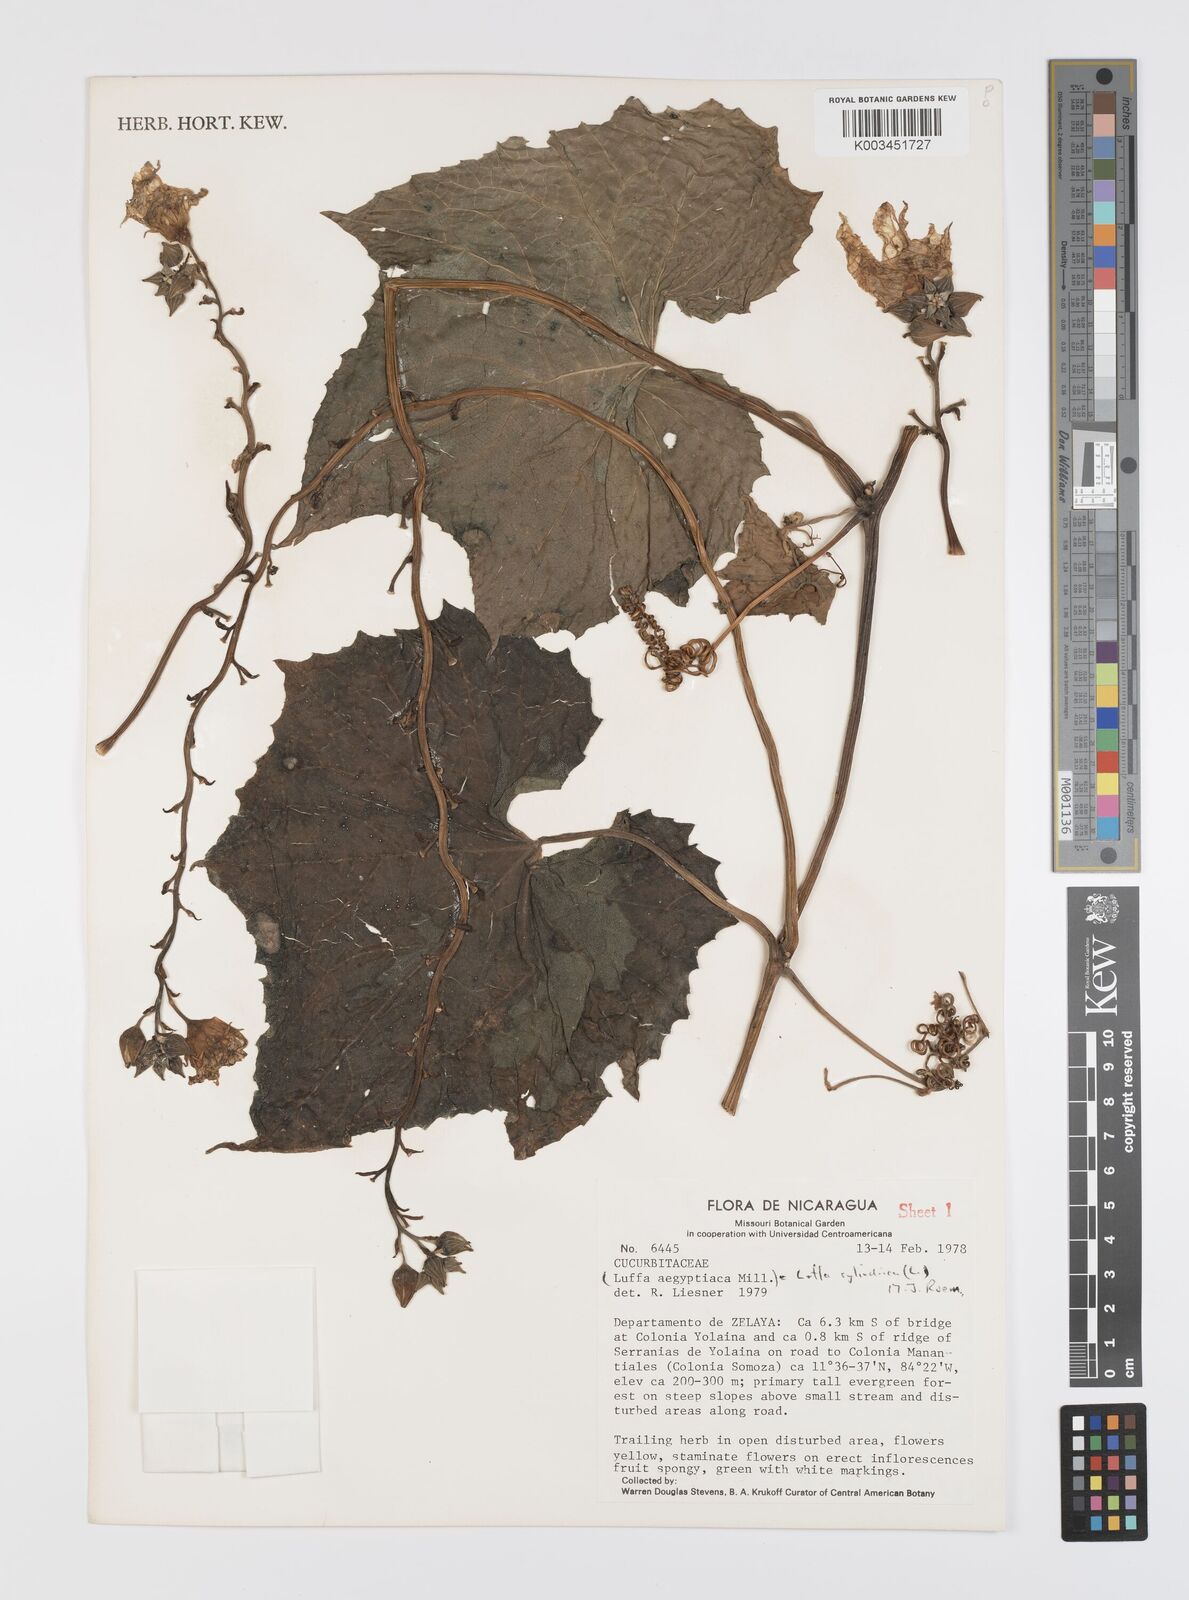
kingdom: Plantae
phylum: Tracheophyta
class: Magnoliopsida
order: Cucurbitales
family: Cucurbitaceae
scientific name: Cucurbitaceae
